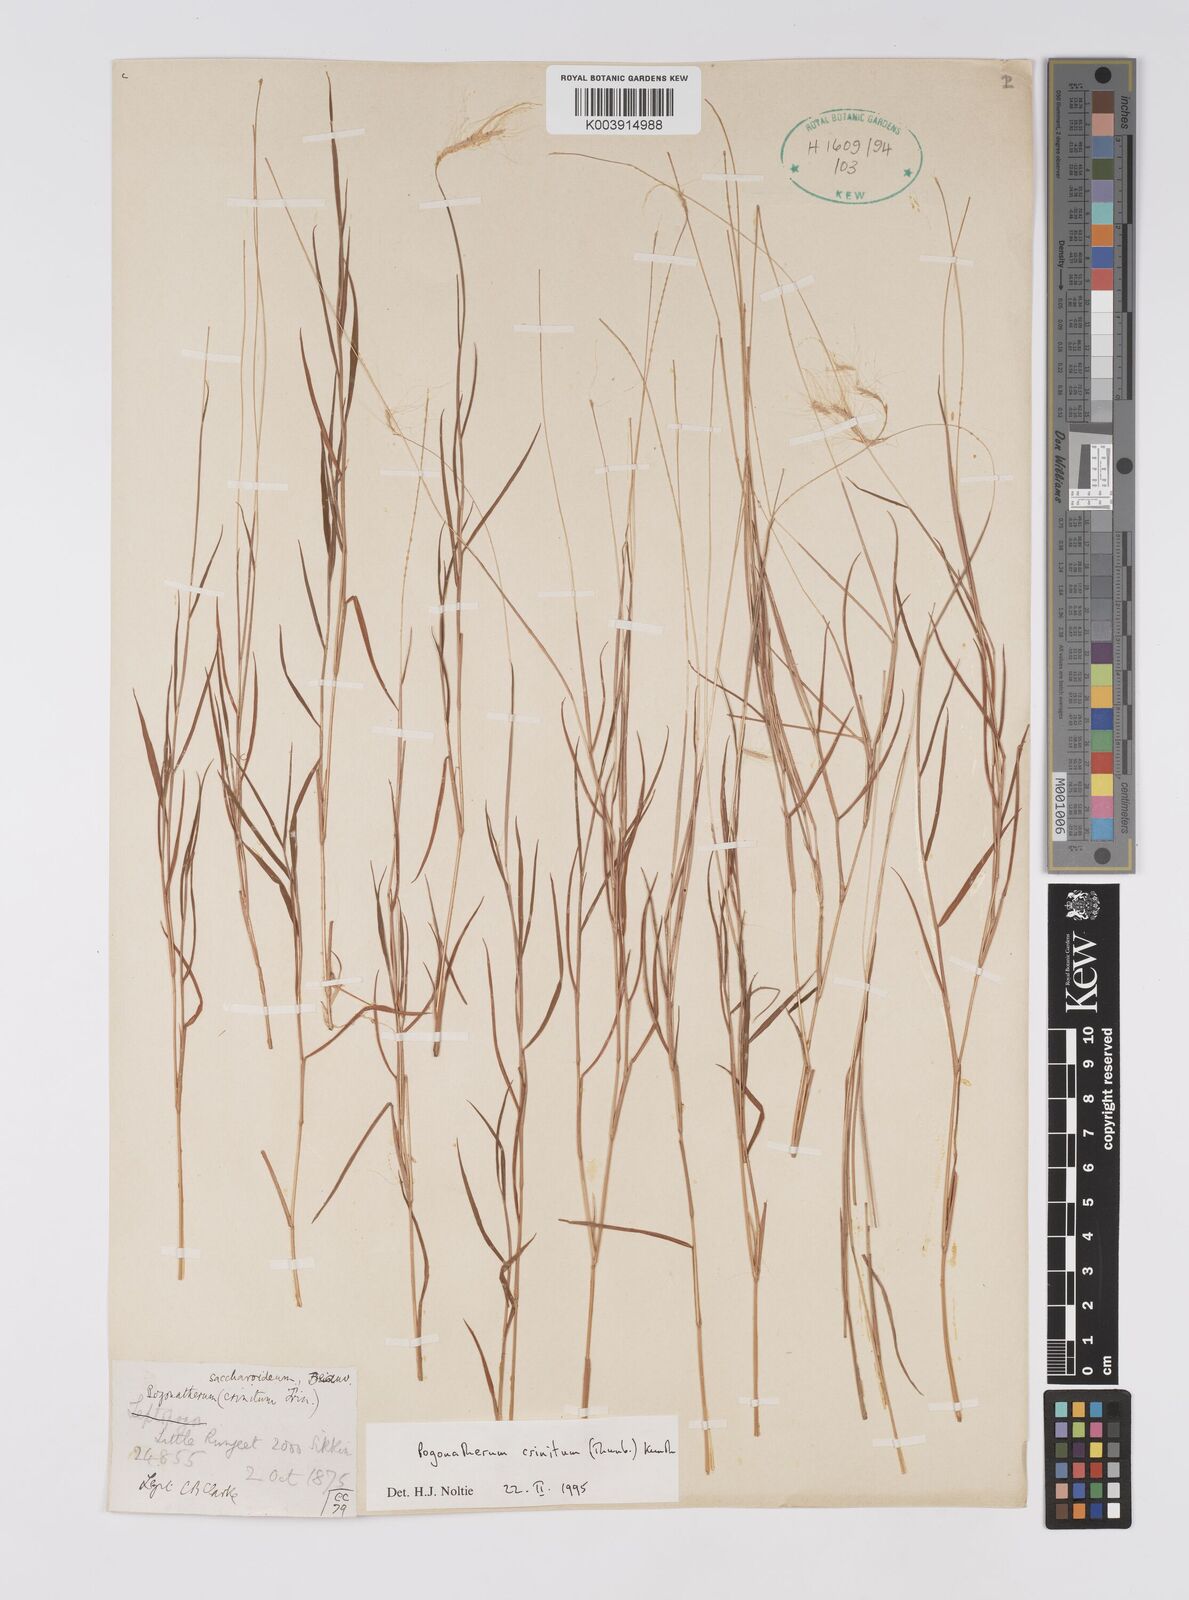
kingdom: Plantae
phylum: Tracheophyta
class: Liliopsida
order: Poales
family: Poaceae
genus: Pogonatherum
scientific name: Pogonatherum crinitum
